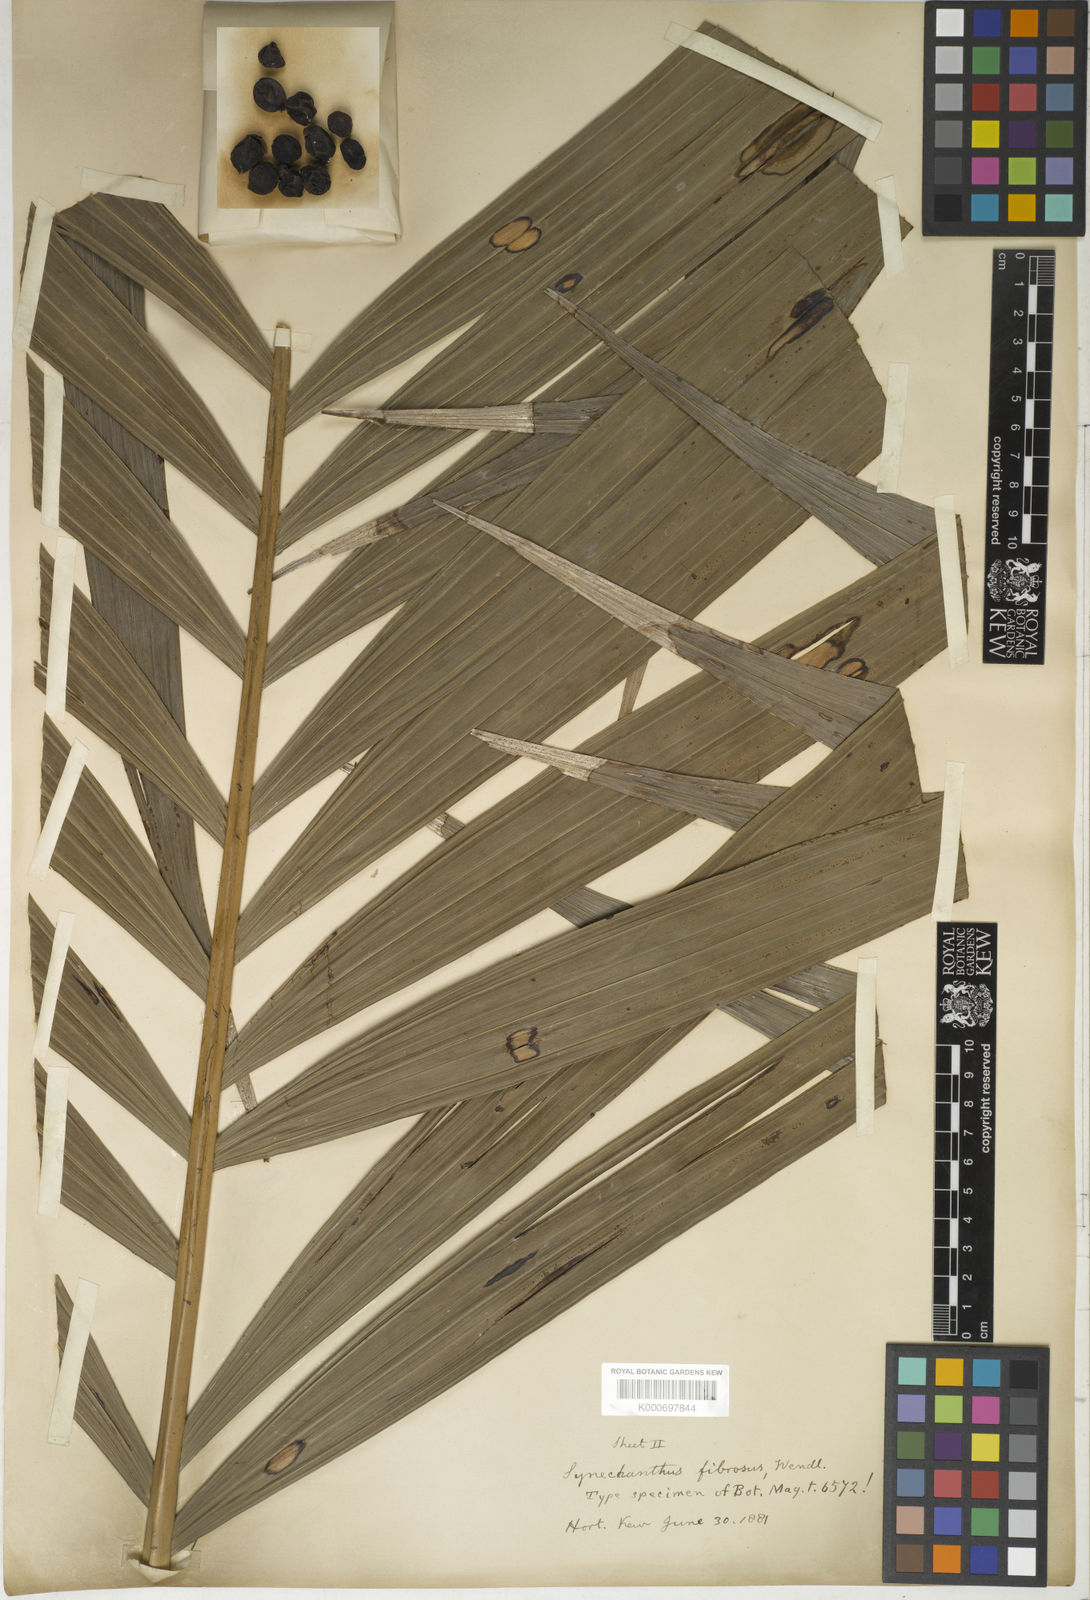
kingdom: Plantae
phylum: Tracheophyta
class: Liliopsida
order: Arecales
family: Arecaceae
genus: Synechanthus
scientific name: Synechanthus fibrosus
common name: Jellybean palm
